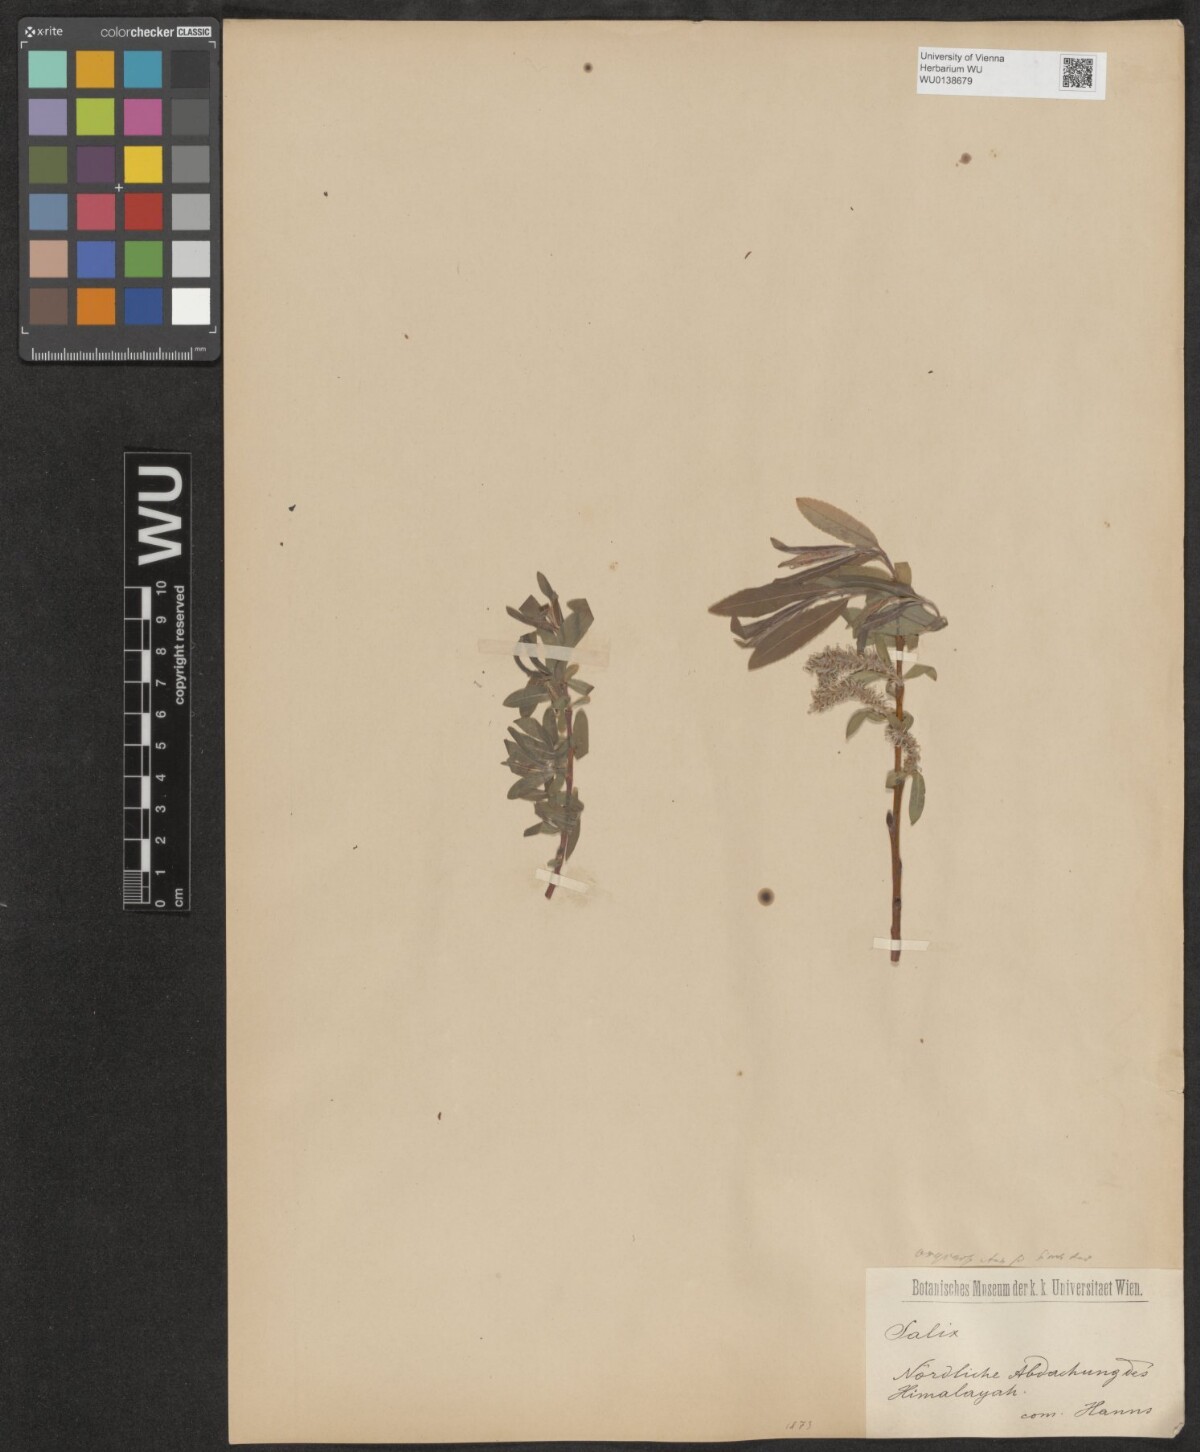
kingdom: Plantae
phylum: Tracheophyta
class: Magnoliopsida
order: Malpighiales
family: Salicaceae
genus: Salix
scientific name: Salix sericocarpa
